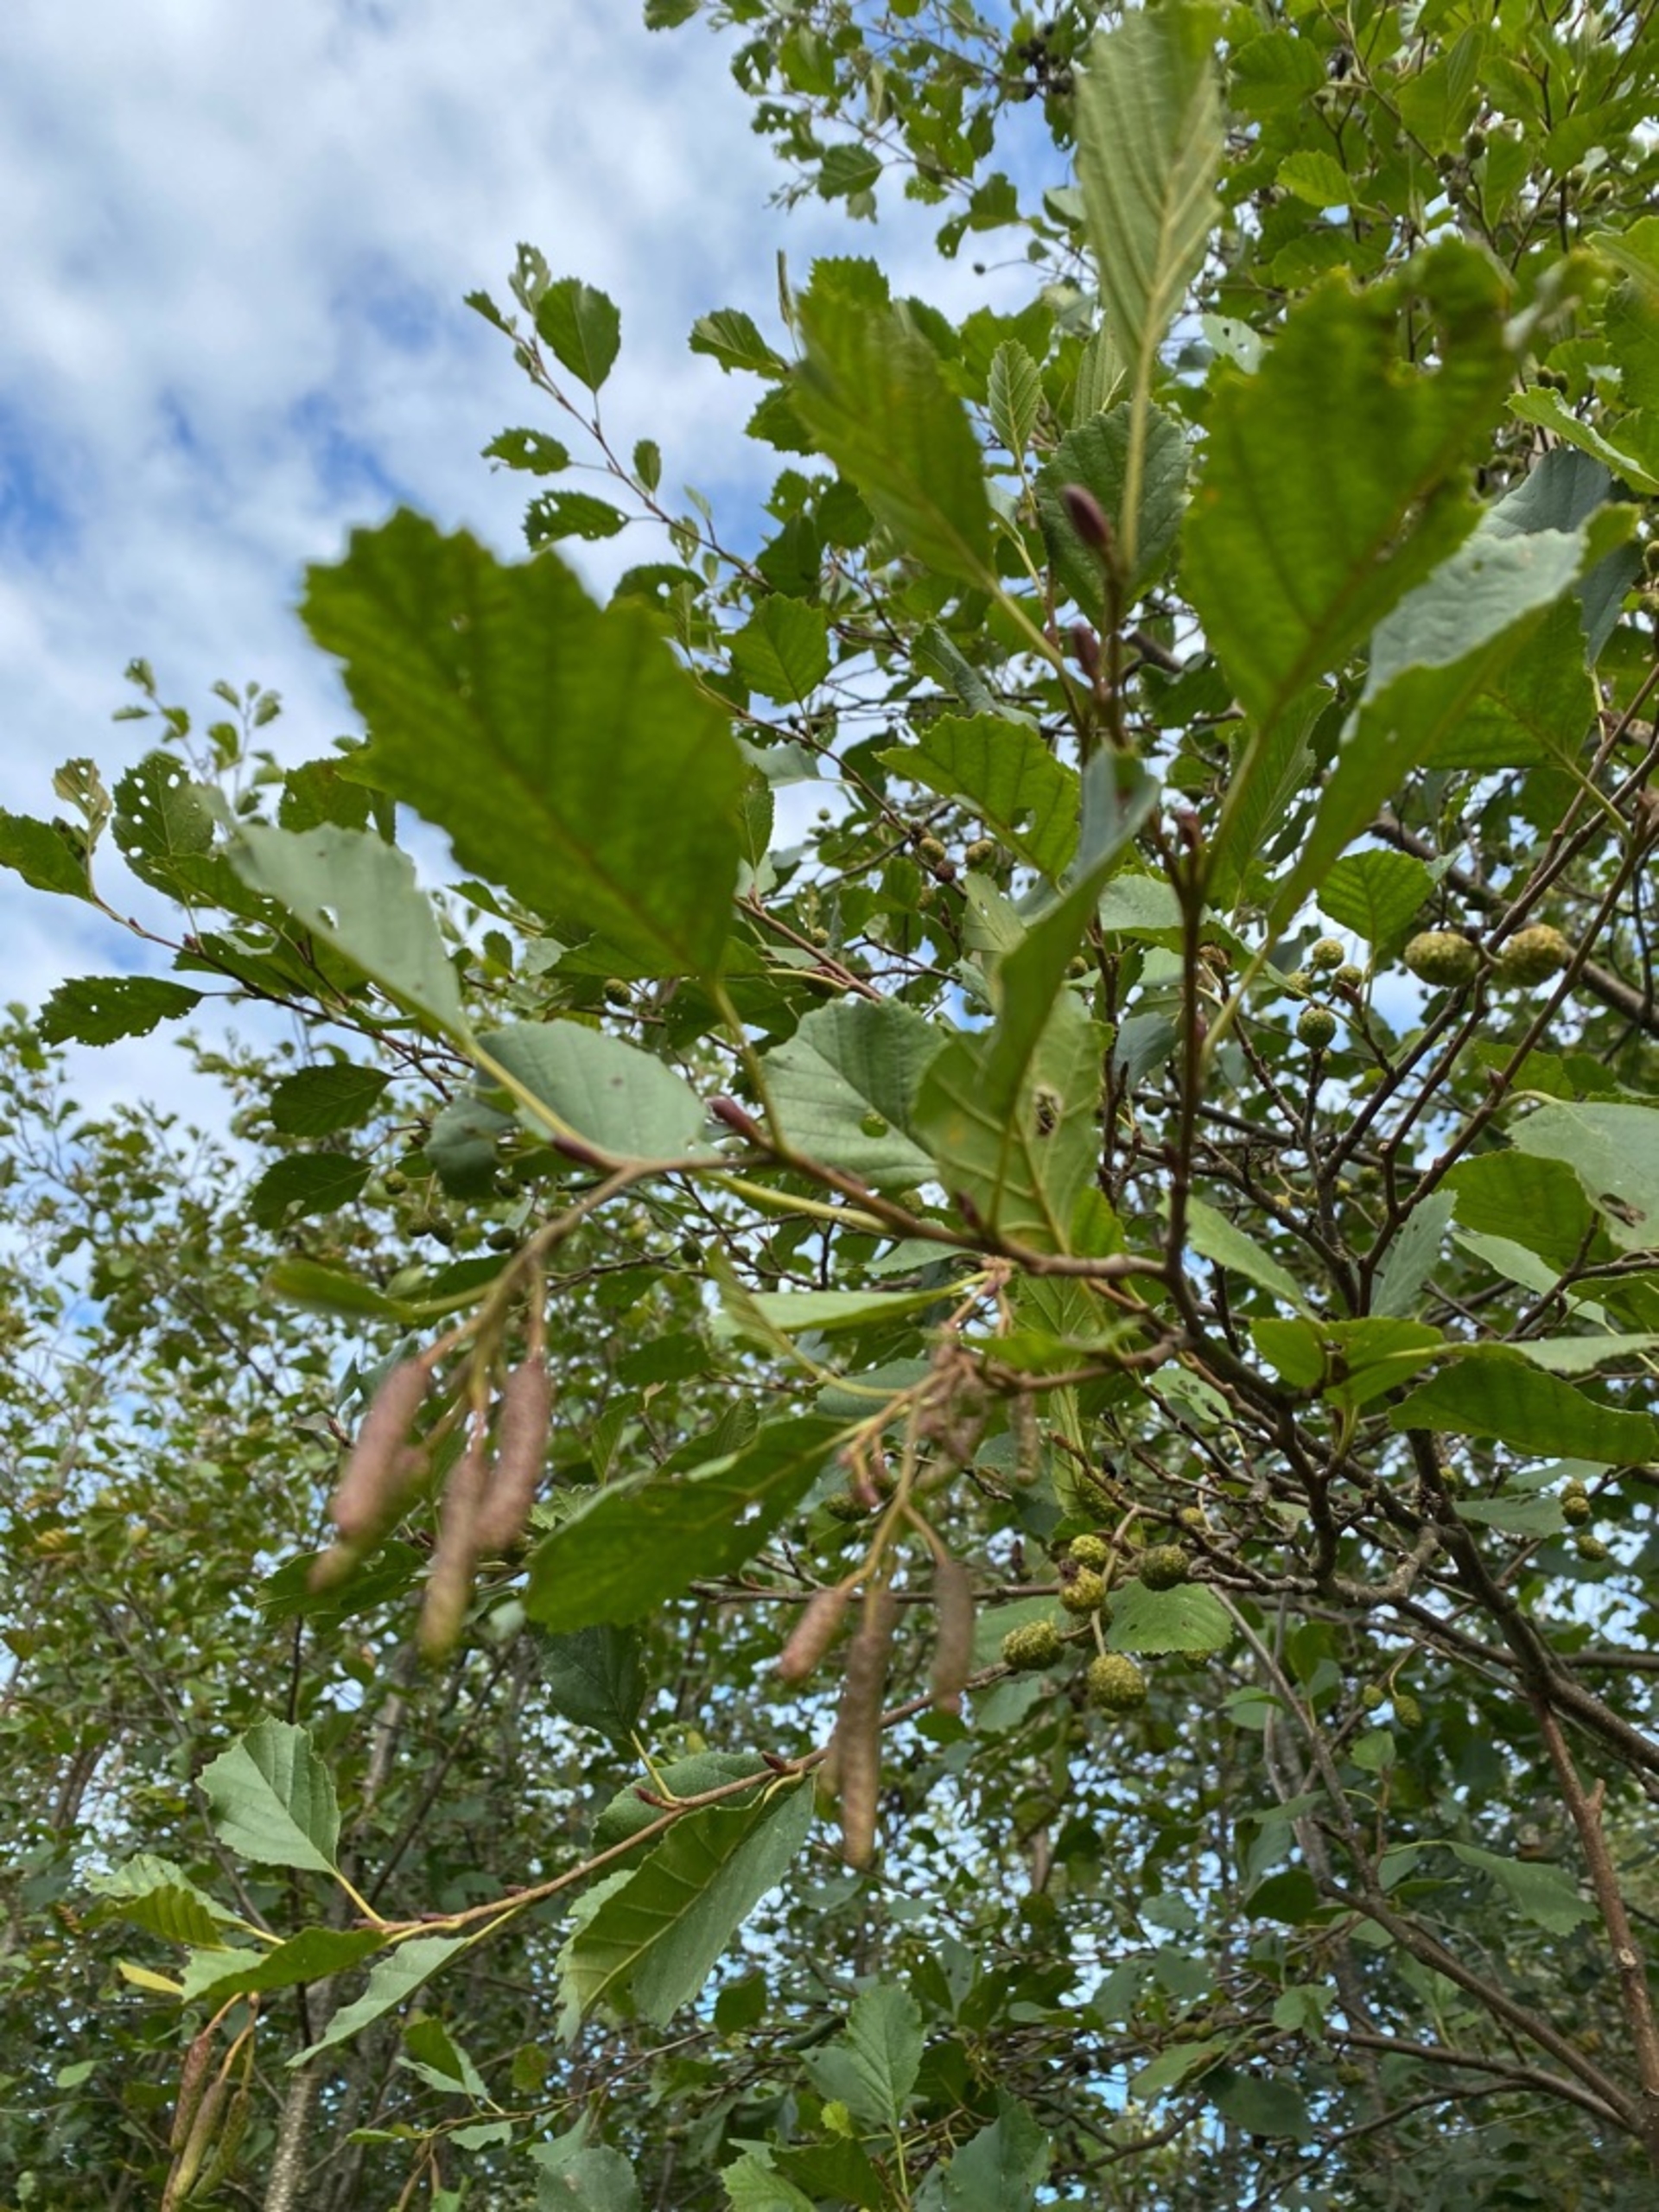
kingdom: Plantae
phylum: Tracheophyta
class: Magnoliopsida
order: Fagales
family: Betulaceae
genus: Alnus
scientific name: Alnus glutinosa
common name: Rød-el
